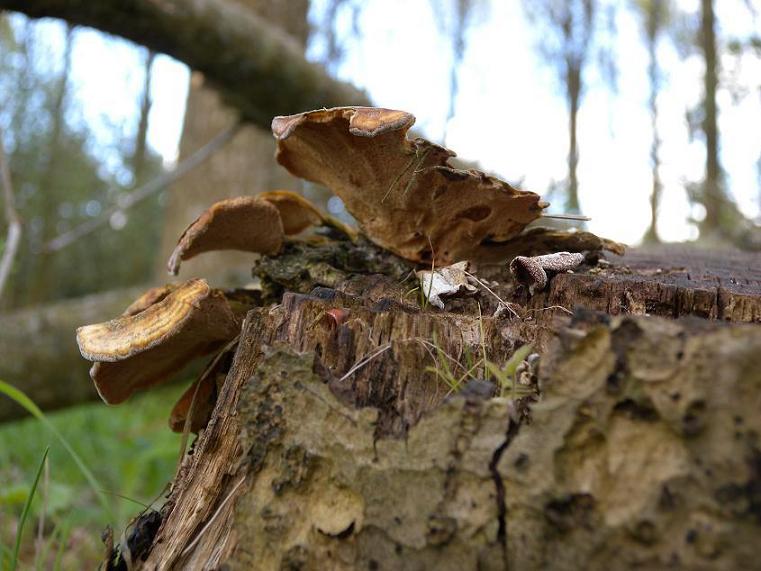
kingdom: Fungi
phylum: Basidiomycota
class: Agaricomycetes
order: Polyporales
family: Polyporaceae
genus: Trametes
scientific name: Trametes versicolor
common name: broget læderporesvamp
